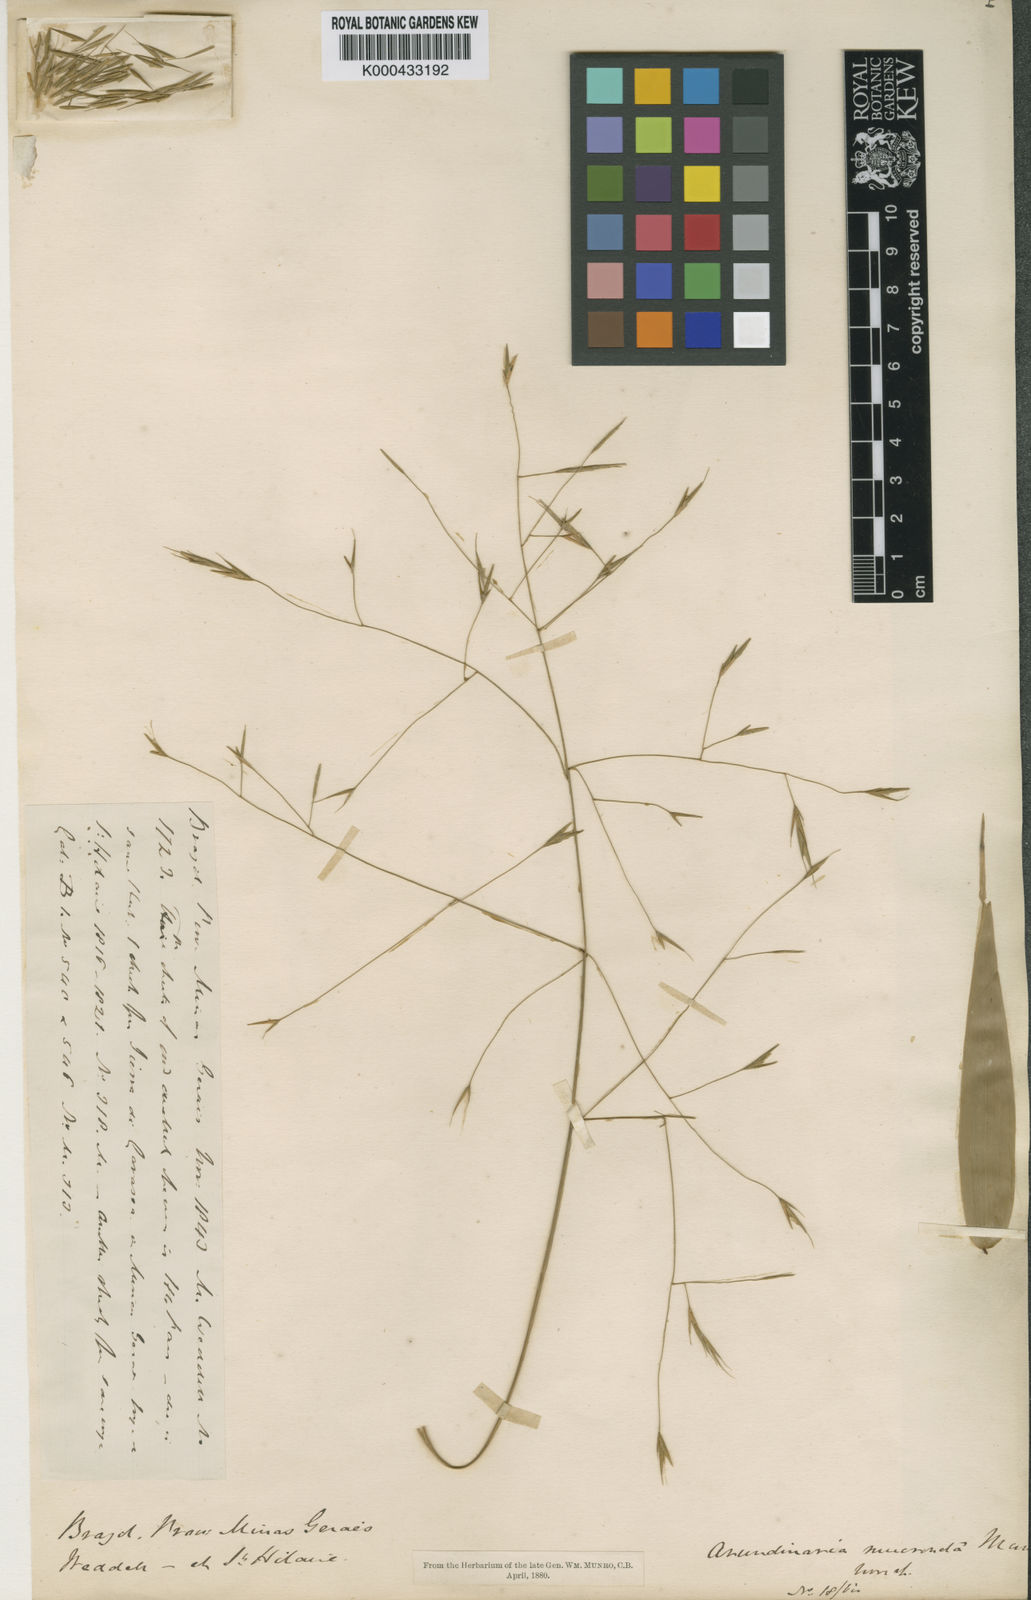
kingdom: Plantae
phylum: Tracheophyta
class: Liliopsida
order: Poales
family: Poaceae
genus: Aulonemia
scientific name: Aulonemia aristulata
